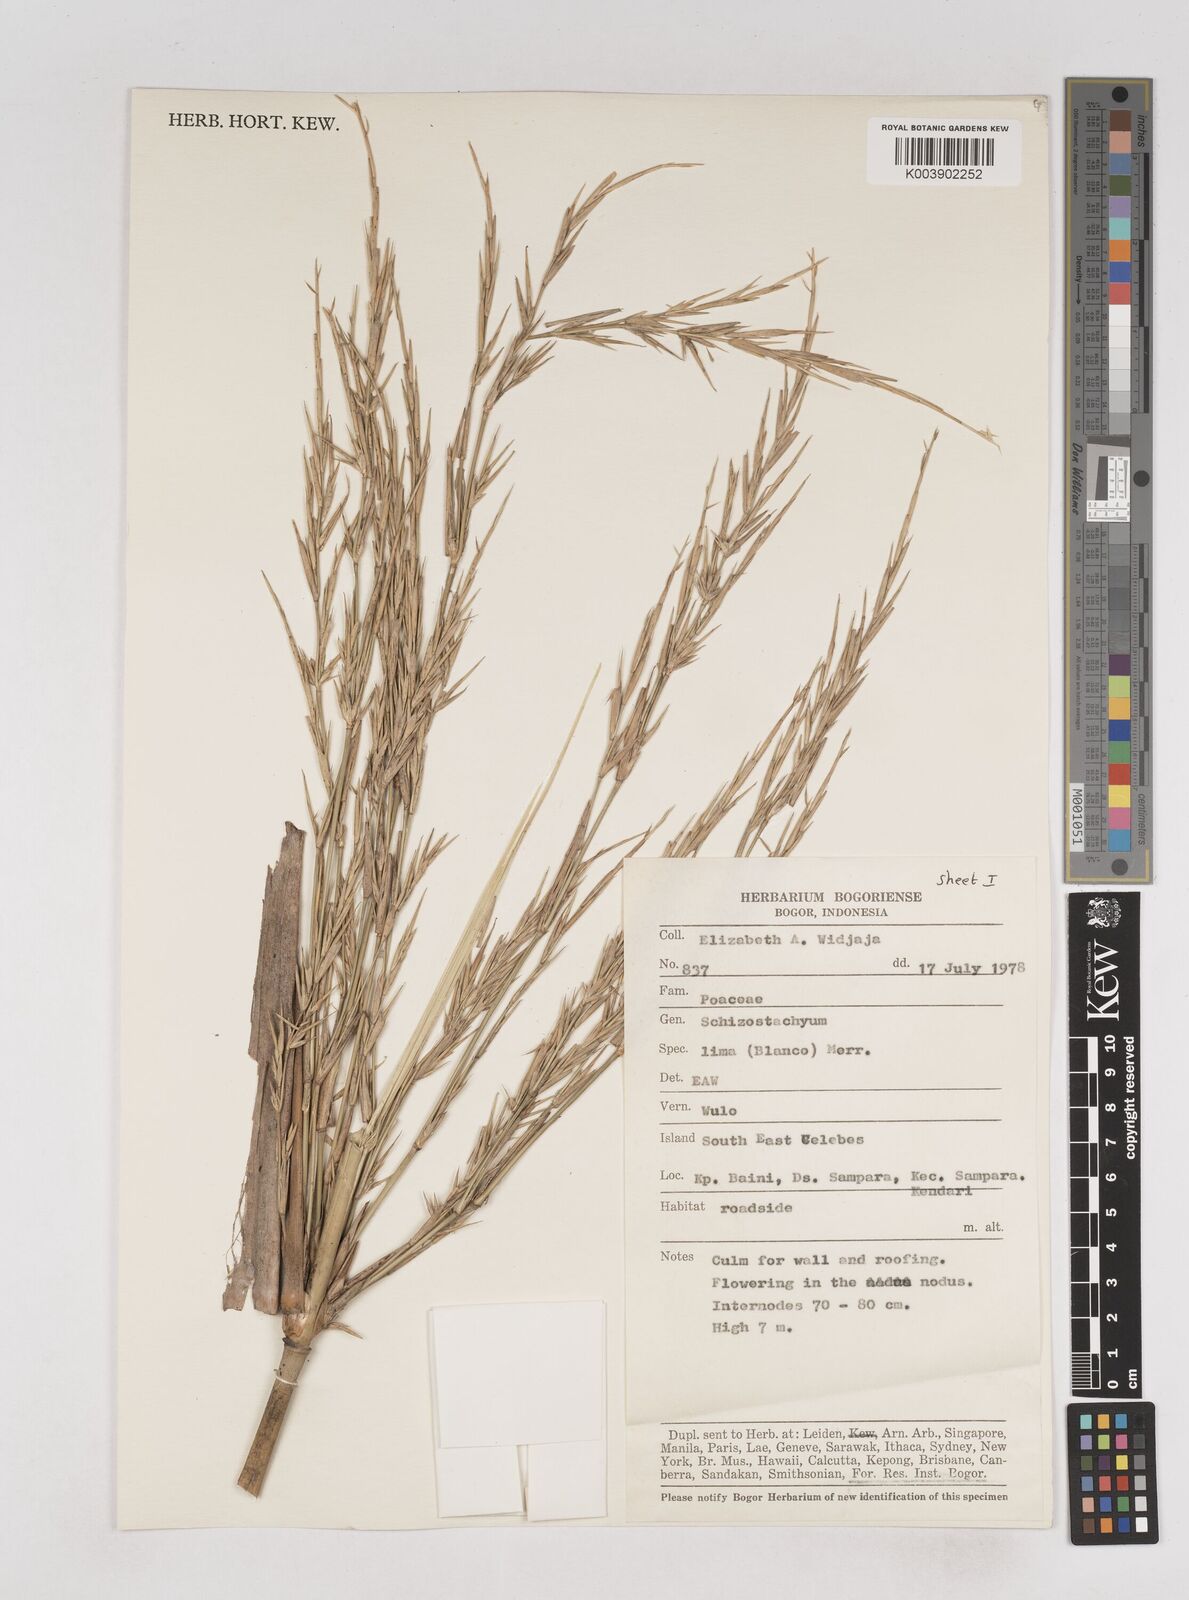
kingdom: Plantae
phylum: Tracheophyta
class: Liliopsida
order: Poales
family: Poaceae
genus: Schizostachyum
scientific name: Schizostachyum lima
